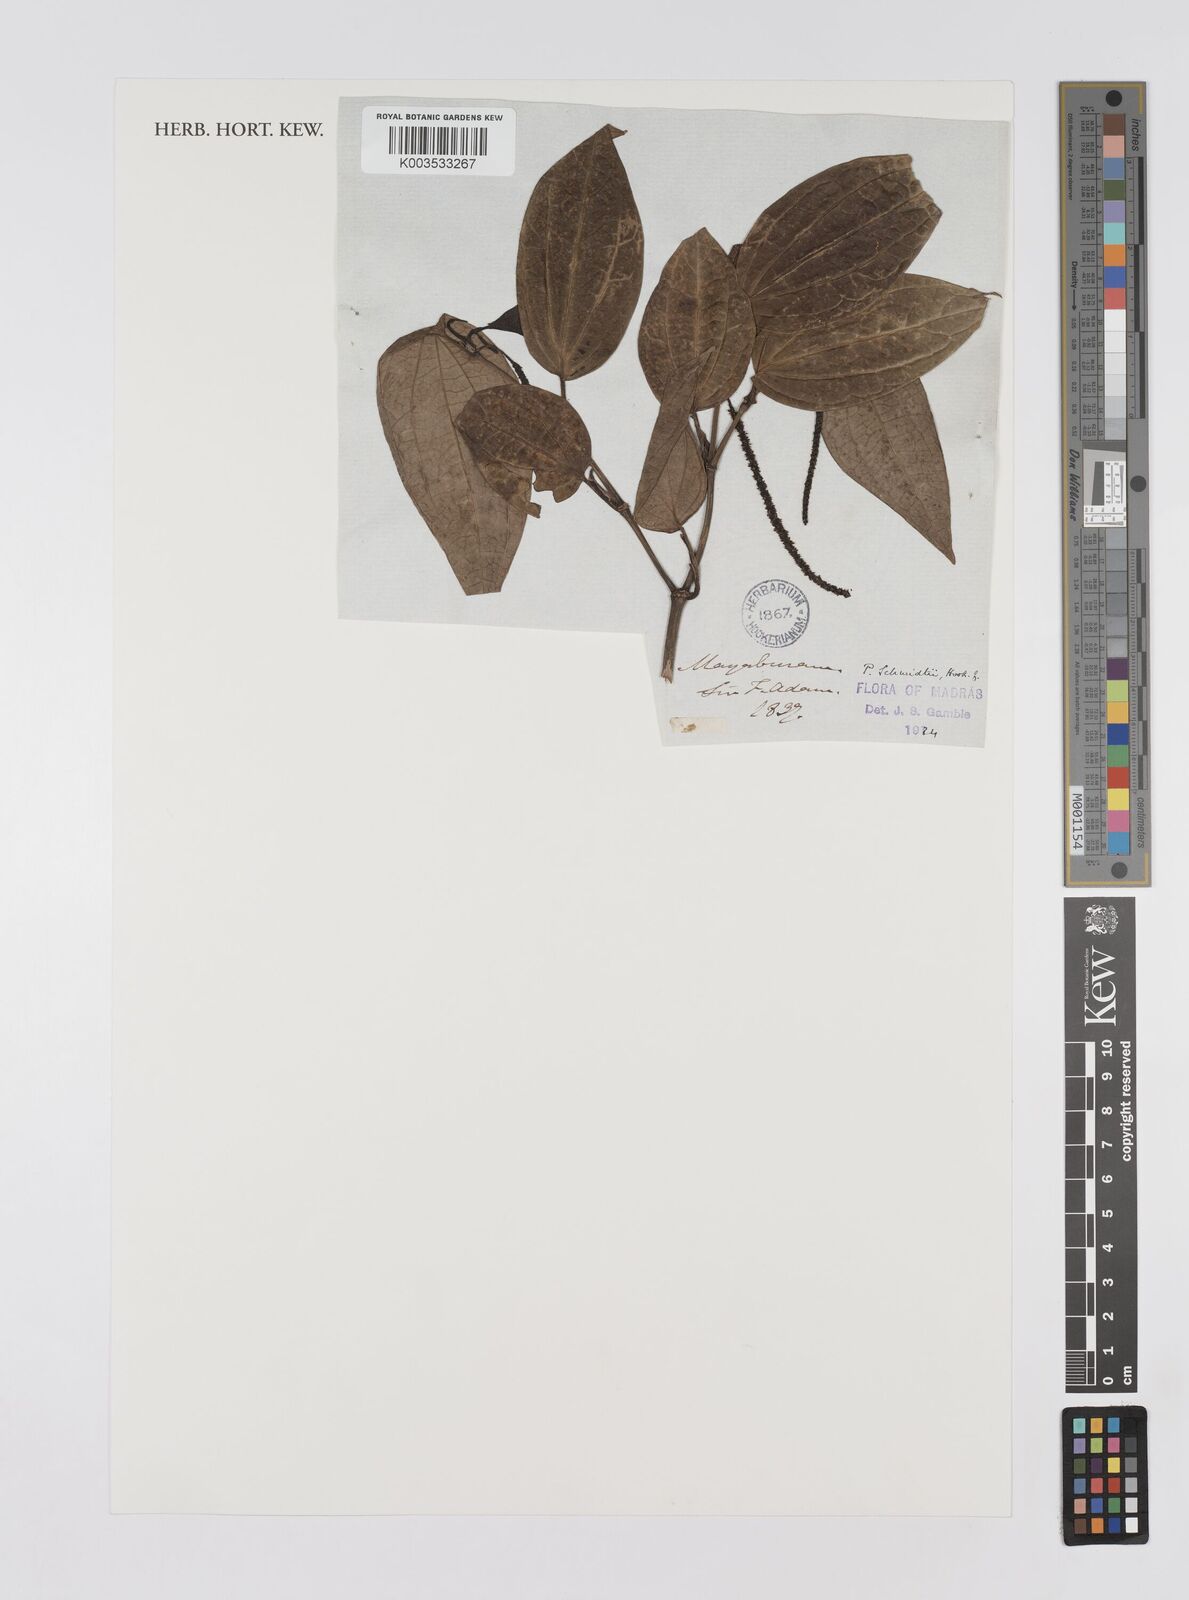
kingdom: Plantae
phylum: Tracheophyta
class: Magnoliopsida
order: Piperales
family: Piperaceae
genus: Piper
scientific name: Piper schmidtii
